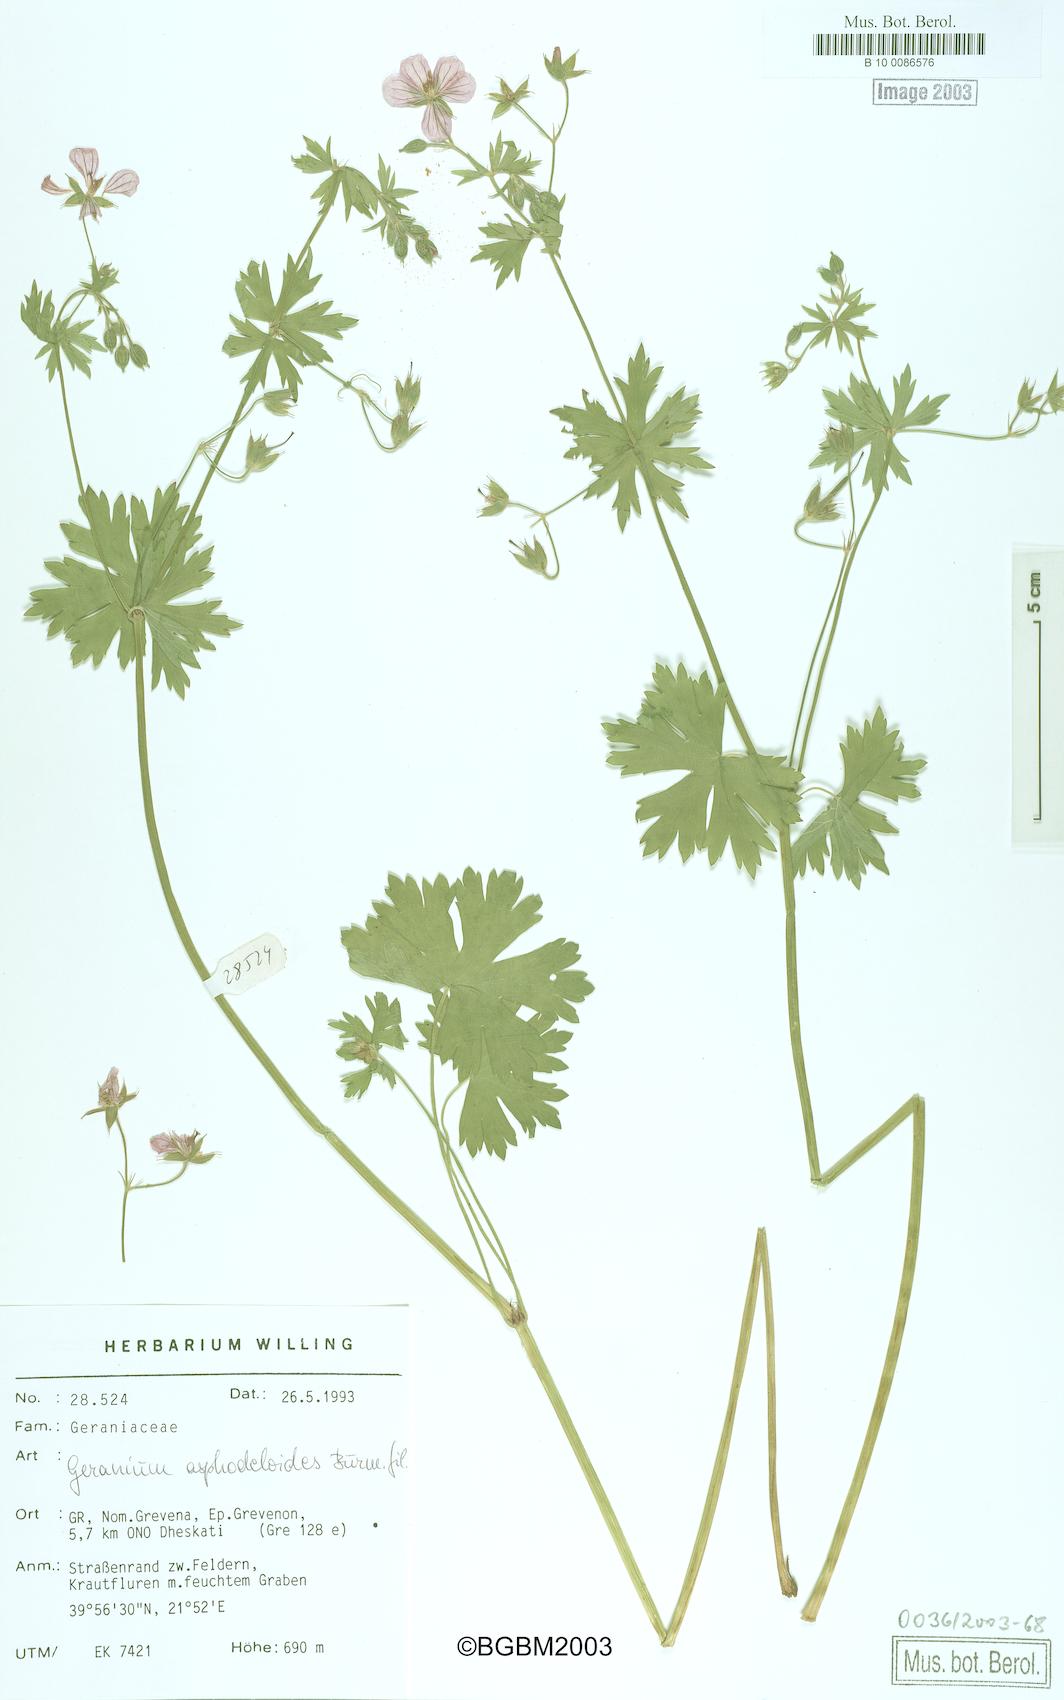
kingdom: Plantae
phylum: Tracheophyta
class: Magnoliopsida
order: Geraniales
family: Geraniaceae
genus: Geranium
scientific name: Geranium asphodeloides
